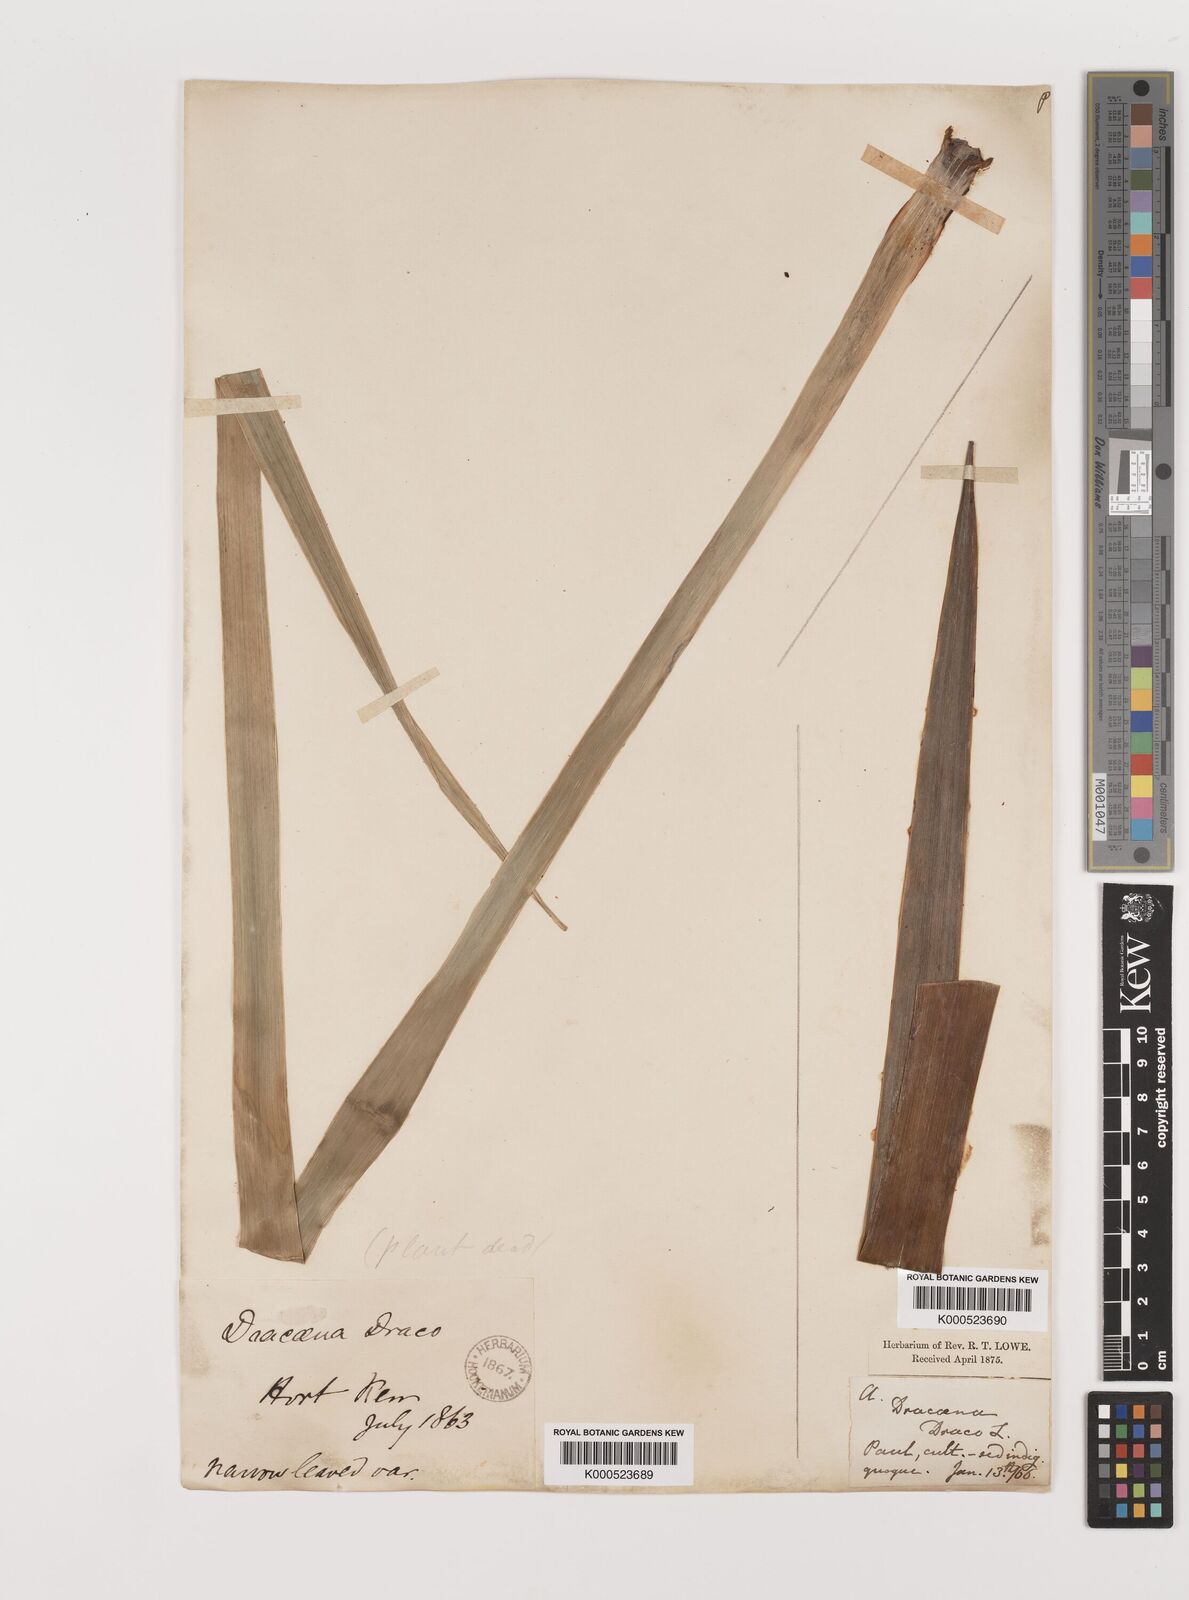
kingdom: Plantae
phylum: Tracheophyta
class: Liliopsida
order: Asparagales
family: Asparagaceae
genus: Dracaena
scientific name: Dracaena draco
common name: Canary island dragon tree
